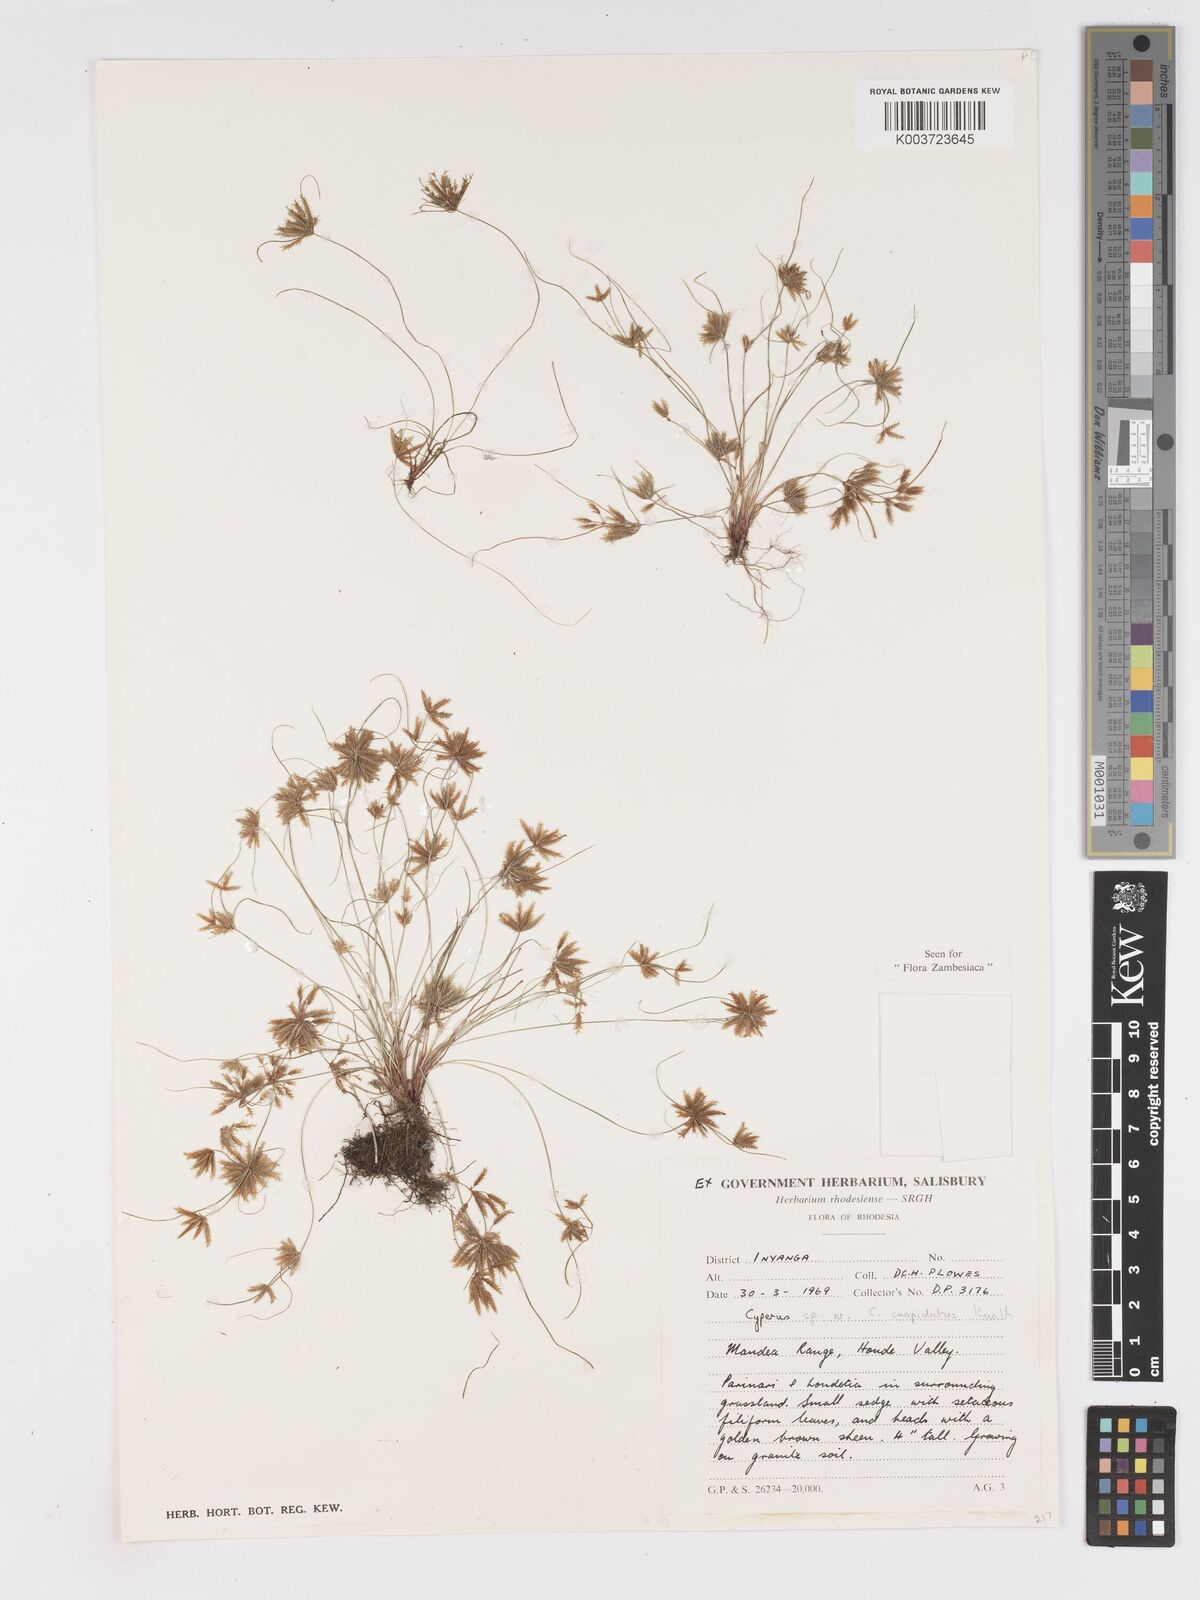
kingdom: Plantae
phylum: Tracheophyta
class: Liliopsida
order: Poales
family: Cyperaceae
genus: Cyperus
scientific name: Cyperus betafensis
